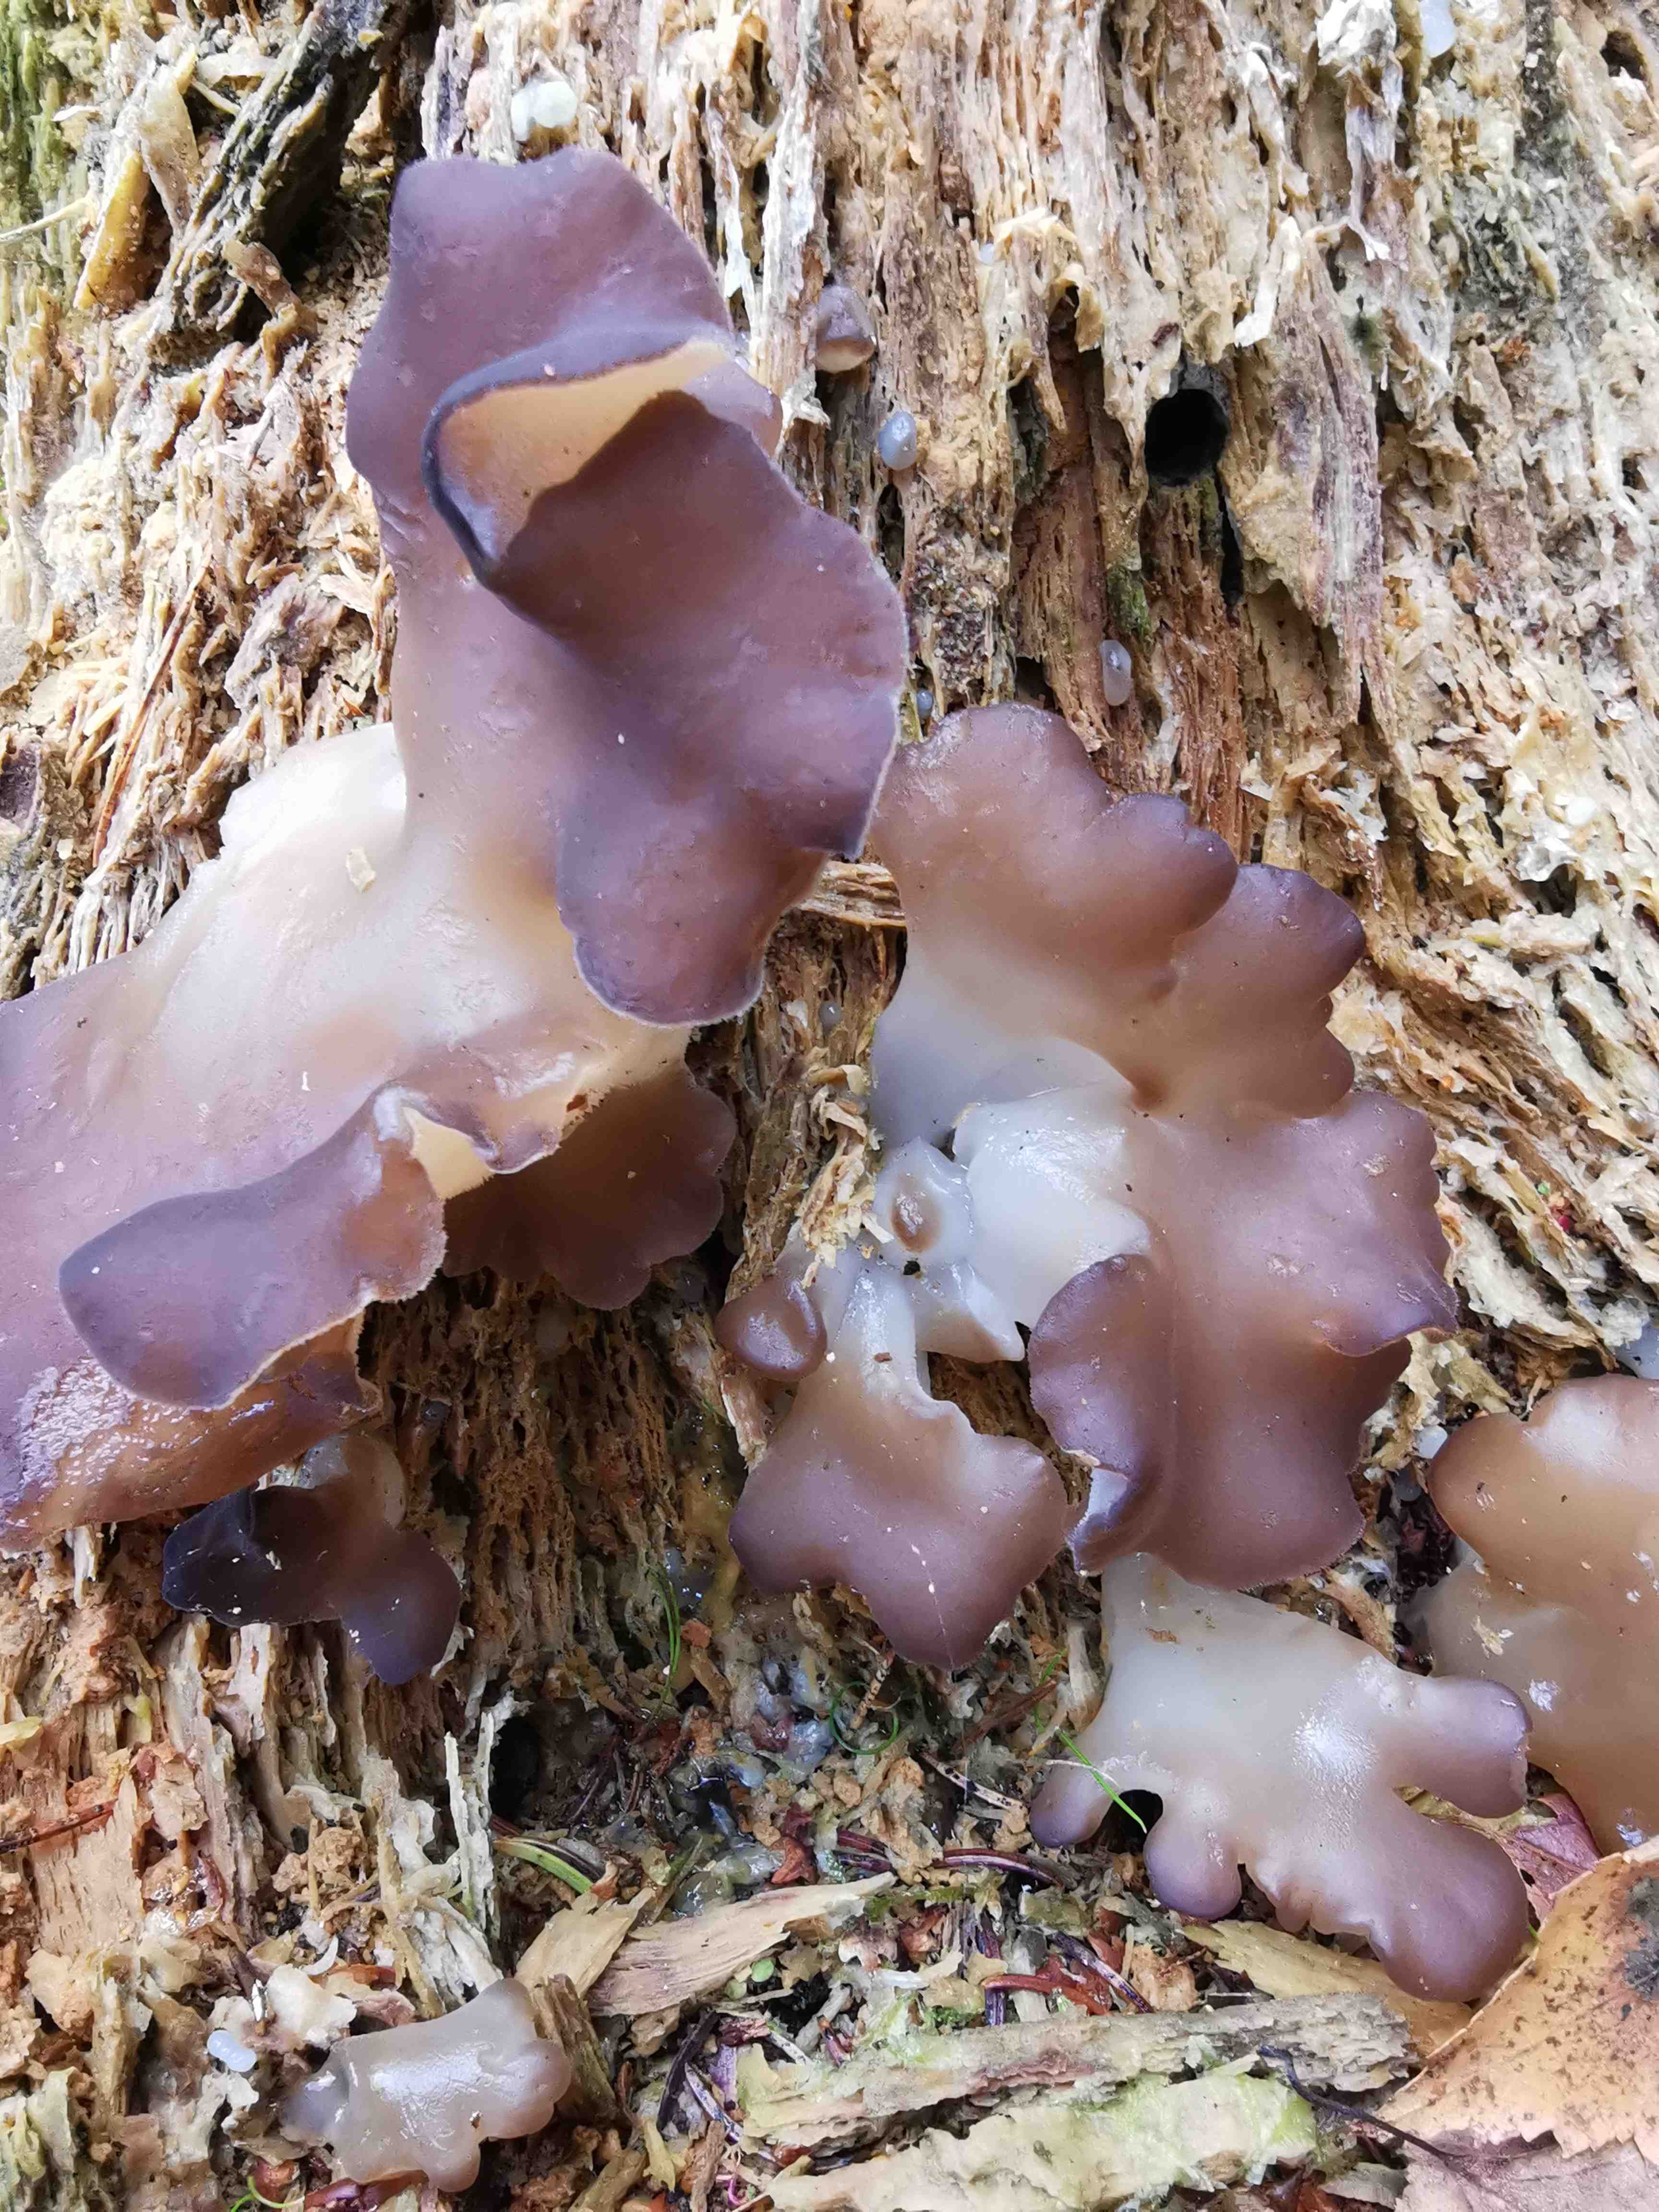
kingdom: Fungi
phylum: Basidiomycota
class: Agaricomycetes
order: Auriculariales
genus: Pseudohydnum
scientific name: Pseudohydnum gelatinosum
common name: bævretand
